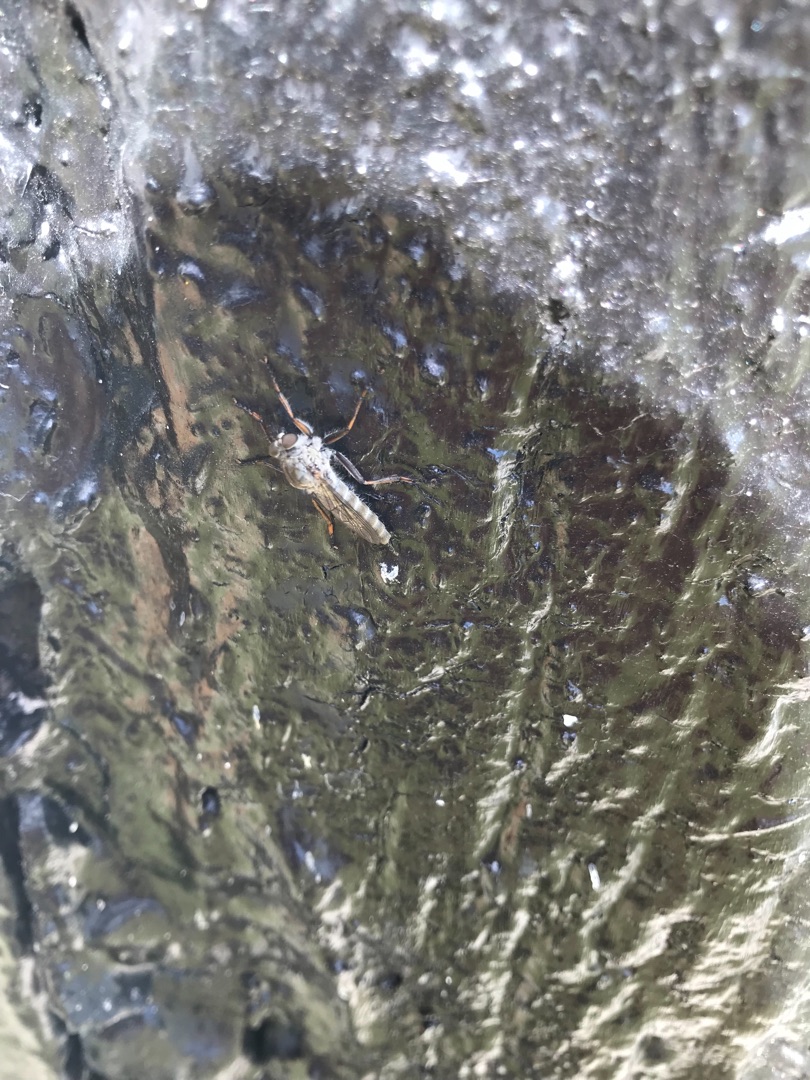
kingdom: Animalia
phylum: Arthropoda
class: Insecta
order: Diptera
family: Asilidae
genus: Machimus
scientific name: Machimus atricapillus
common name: Sort hårrovflue
